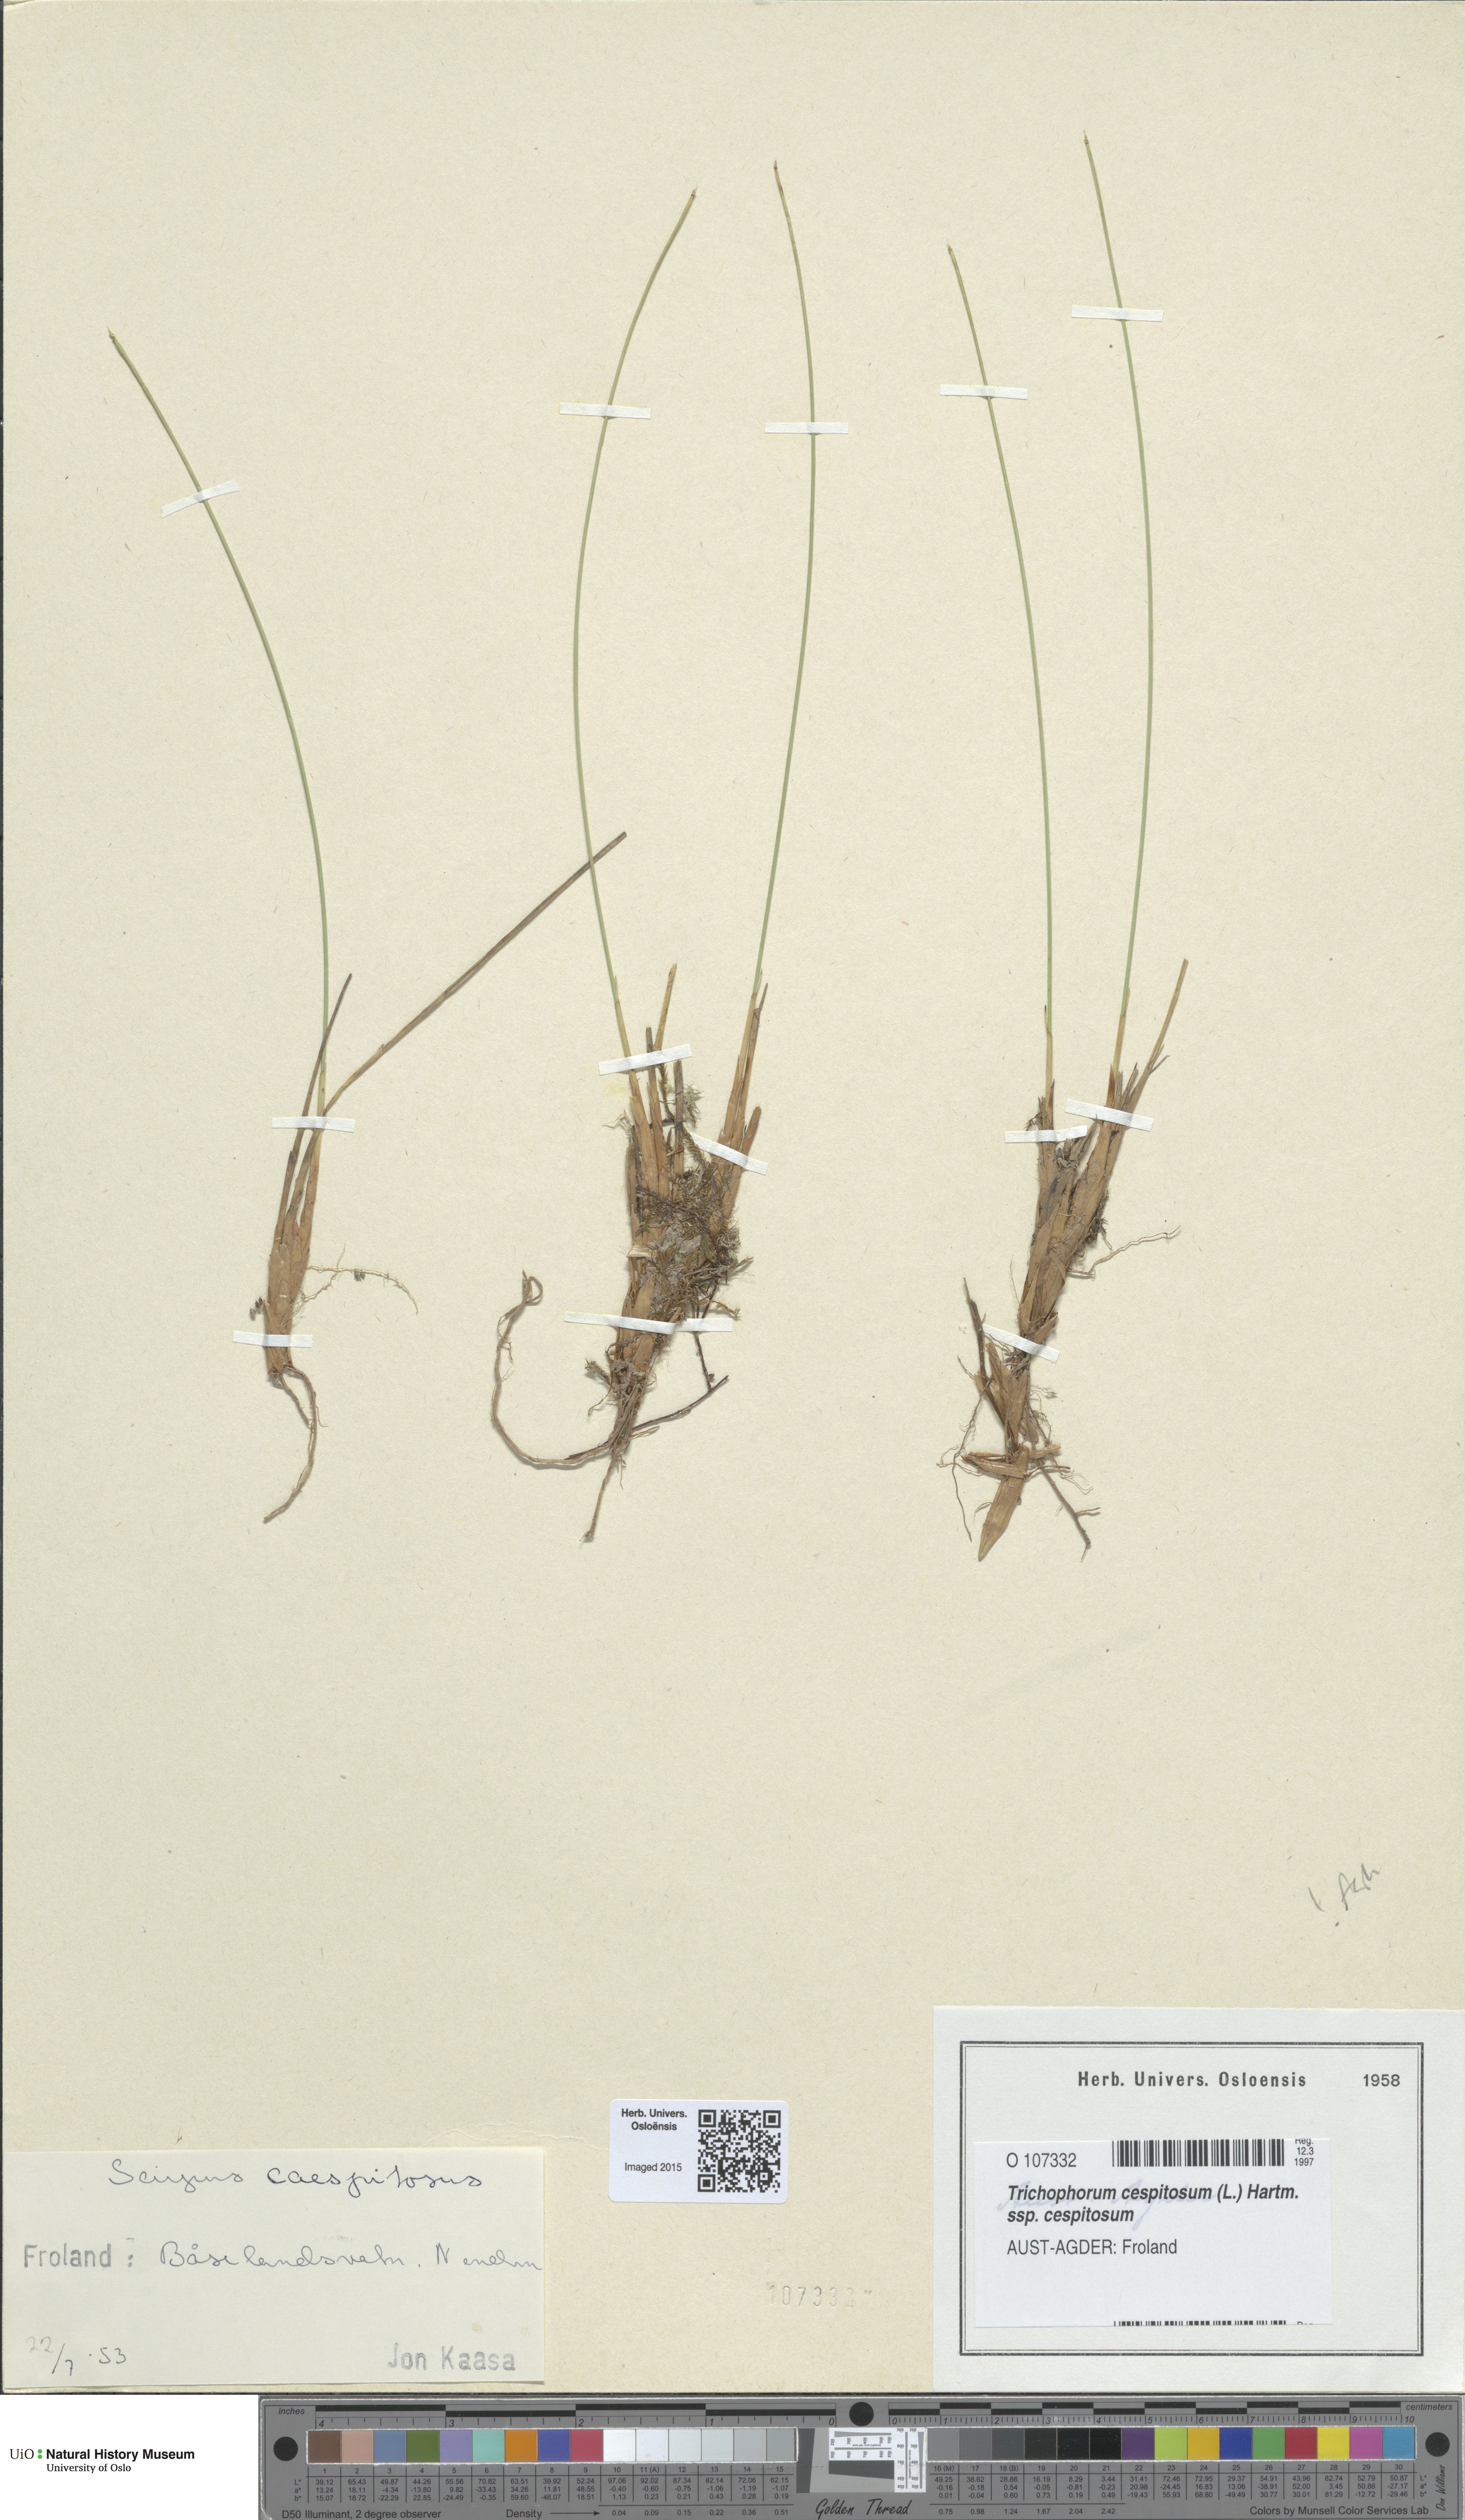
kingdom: Plantae
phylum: Tracheophyta
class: Liliopsida
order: Poales
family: Cyperaceae
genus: Trichophorum
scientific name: Trichophorum cespitosum
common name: Cespitose bulrush
